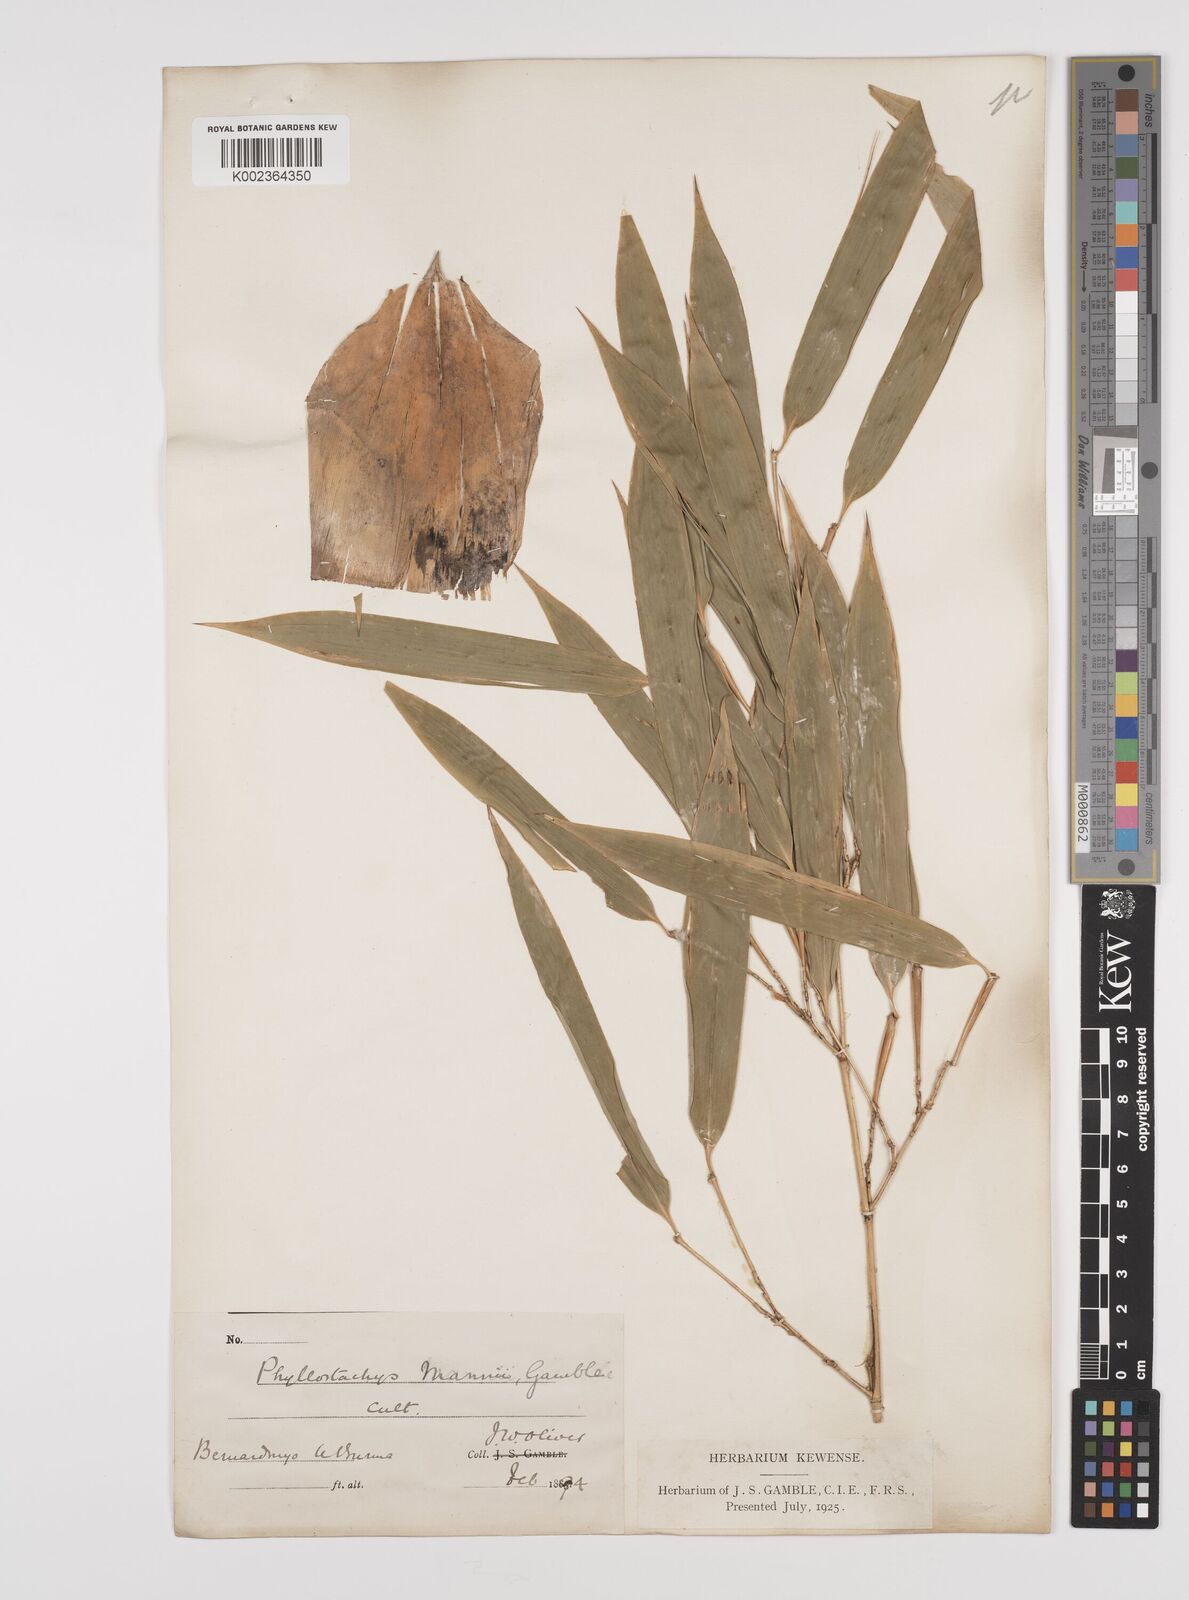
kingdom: Plantae
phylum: Tracheophyta
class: Liliopsida
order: Poales
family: Poaceae
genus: Phyllostachys
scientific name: Phyllostachys mannii
